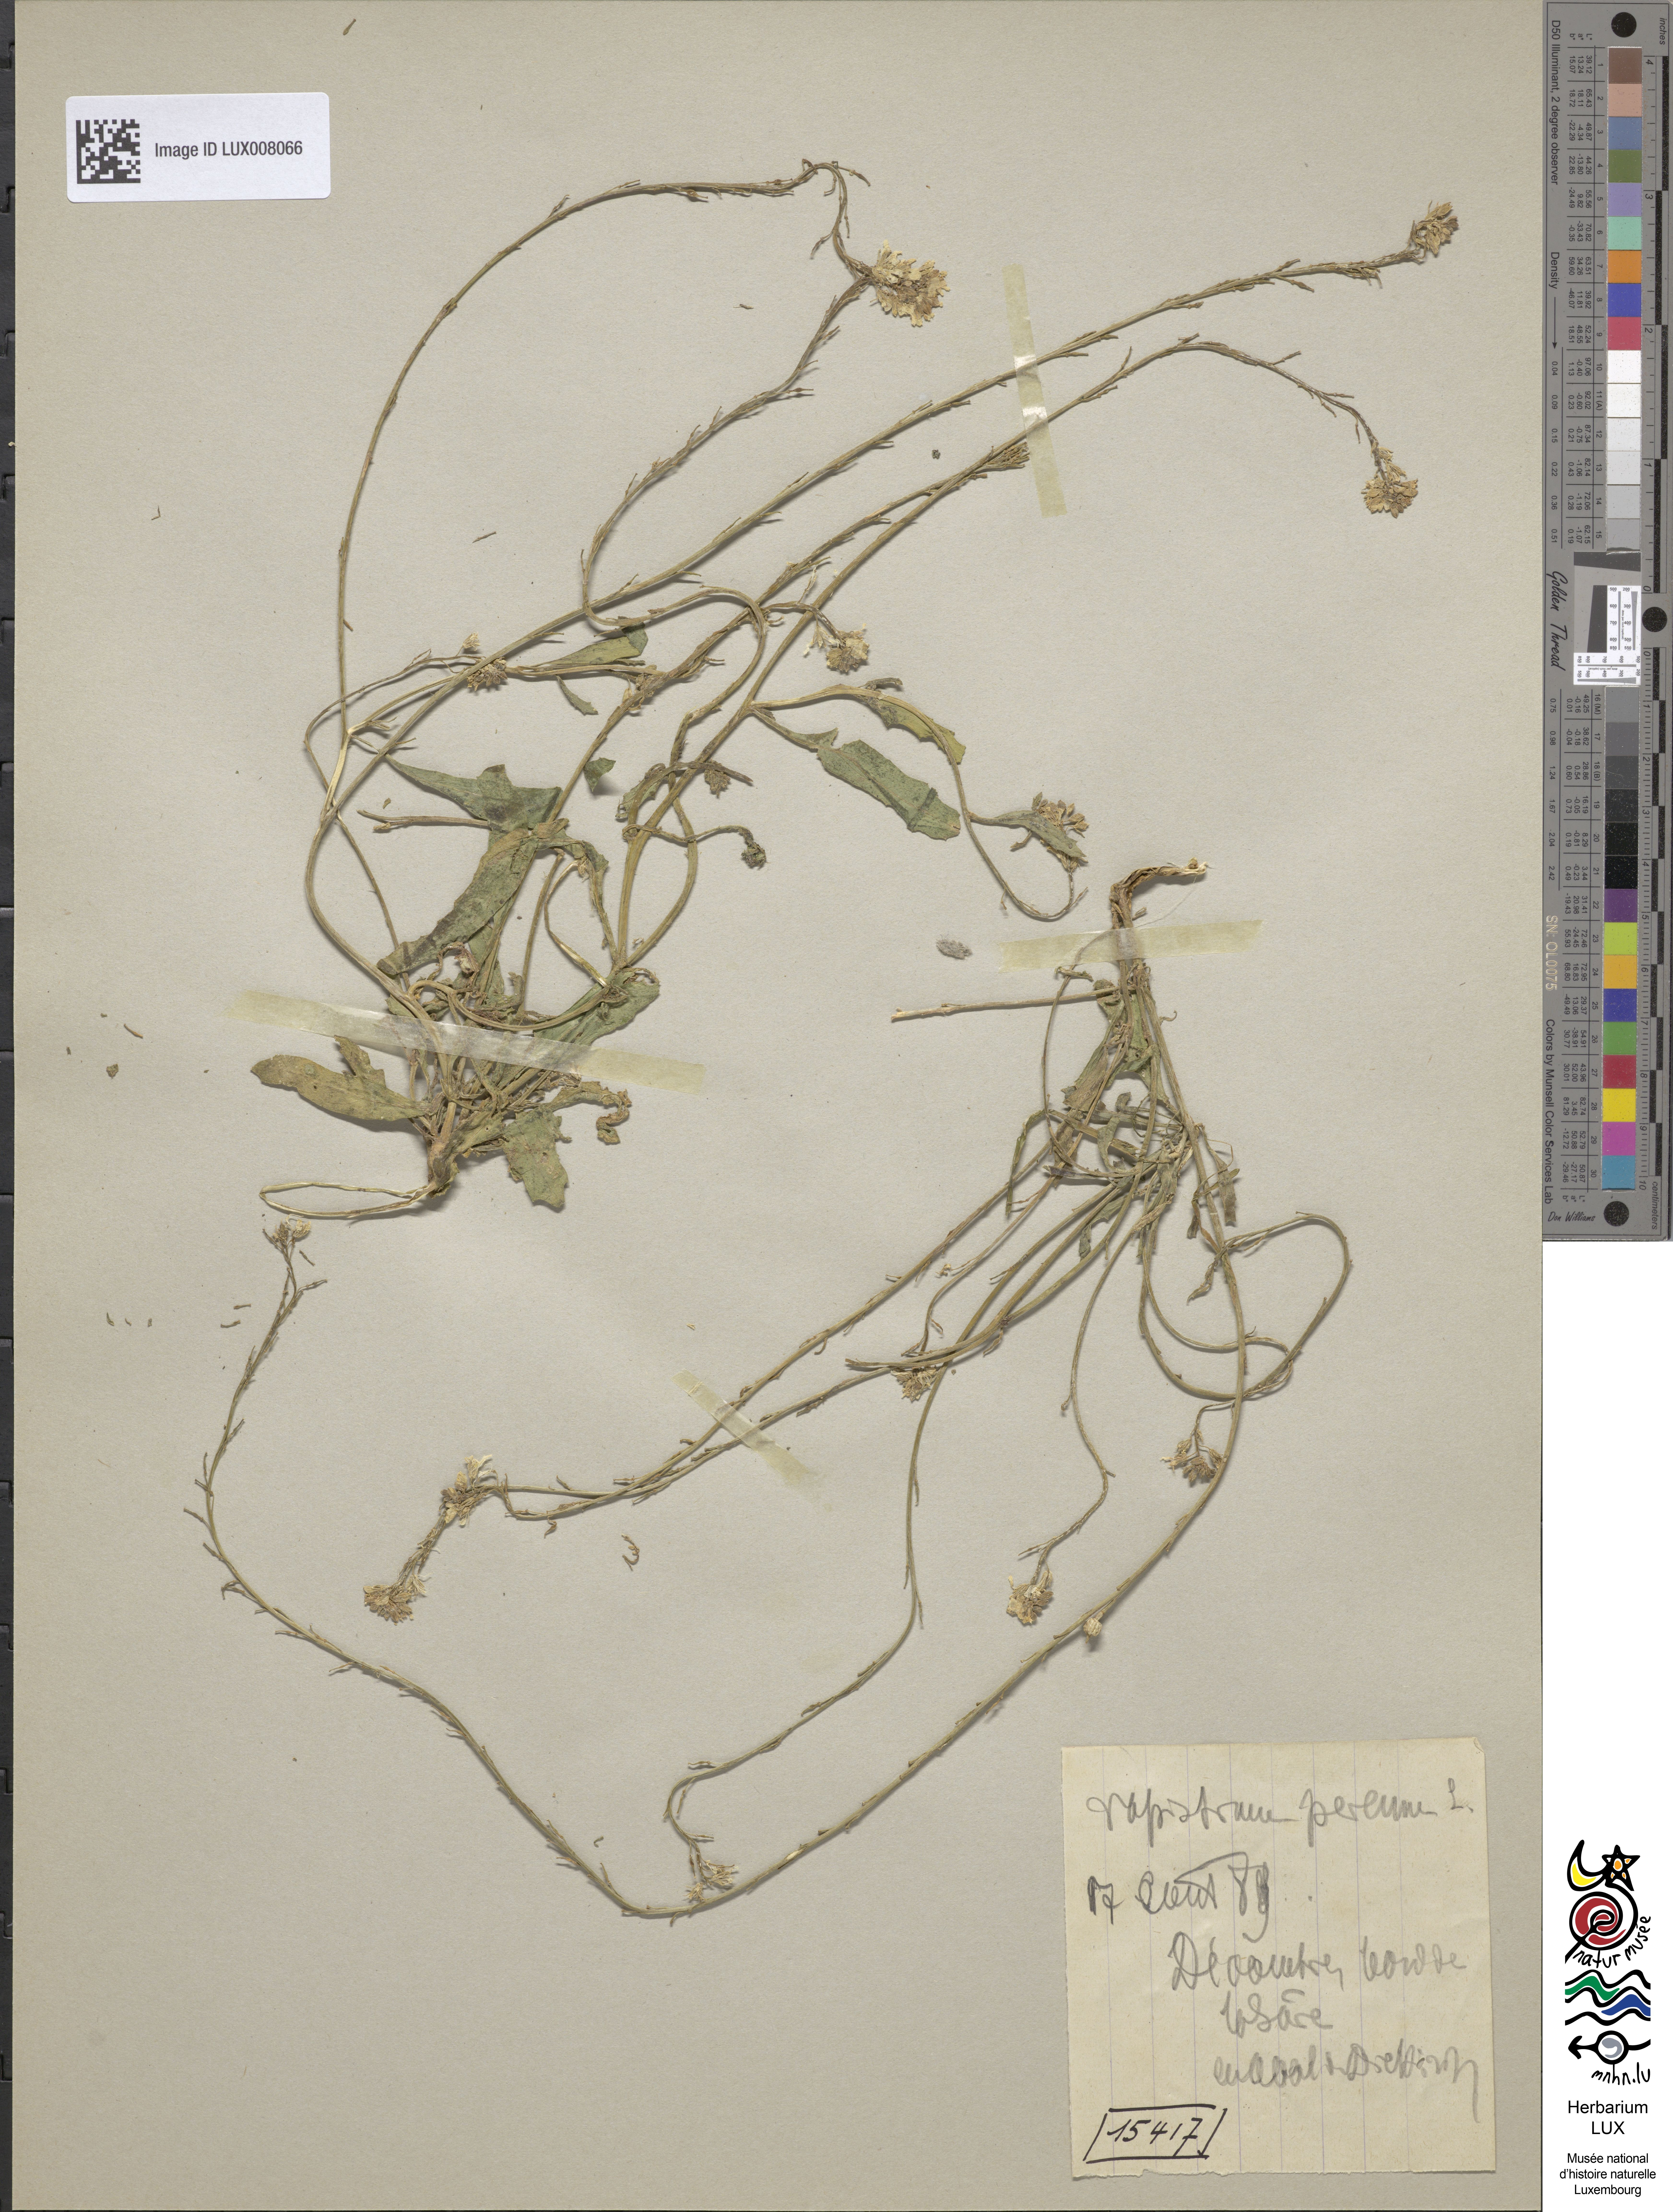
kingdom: Plantae
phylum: Tracheophyta
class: Magnoliopsida
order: Brassicales
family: Brassicaceae
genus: Rapistrum
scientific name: Rapistrum rugosum
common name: Annual bastardcabbage
